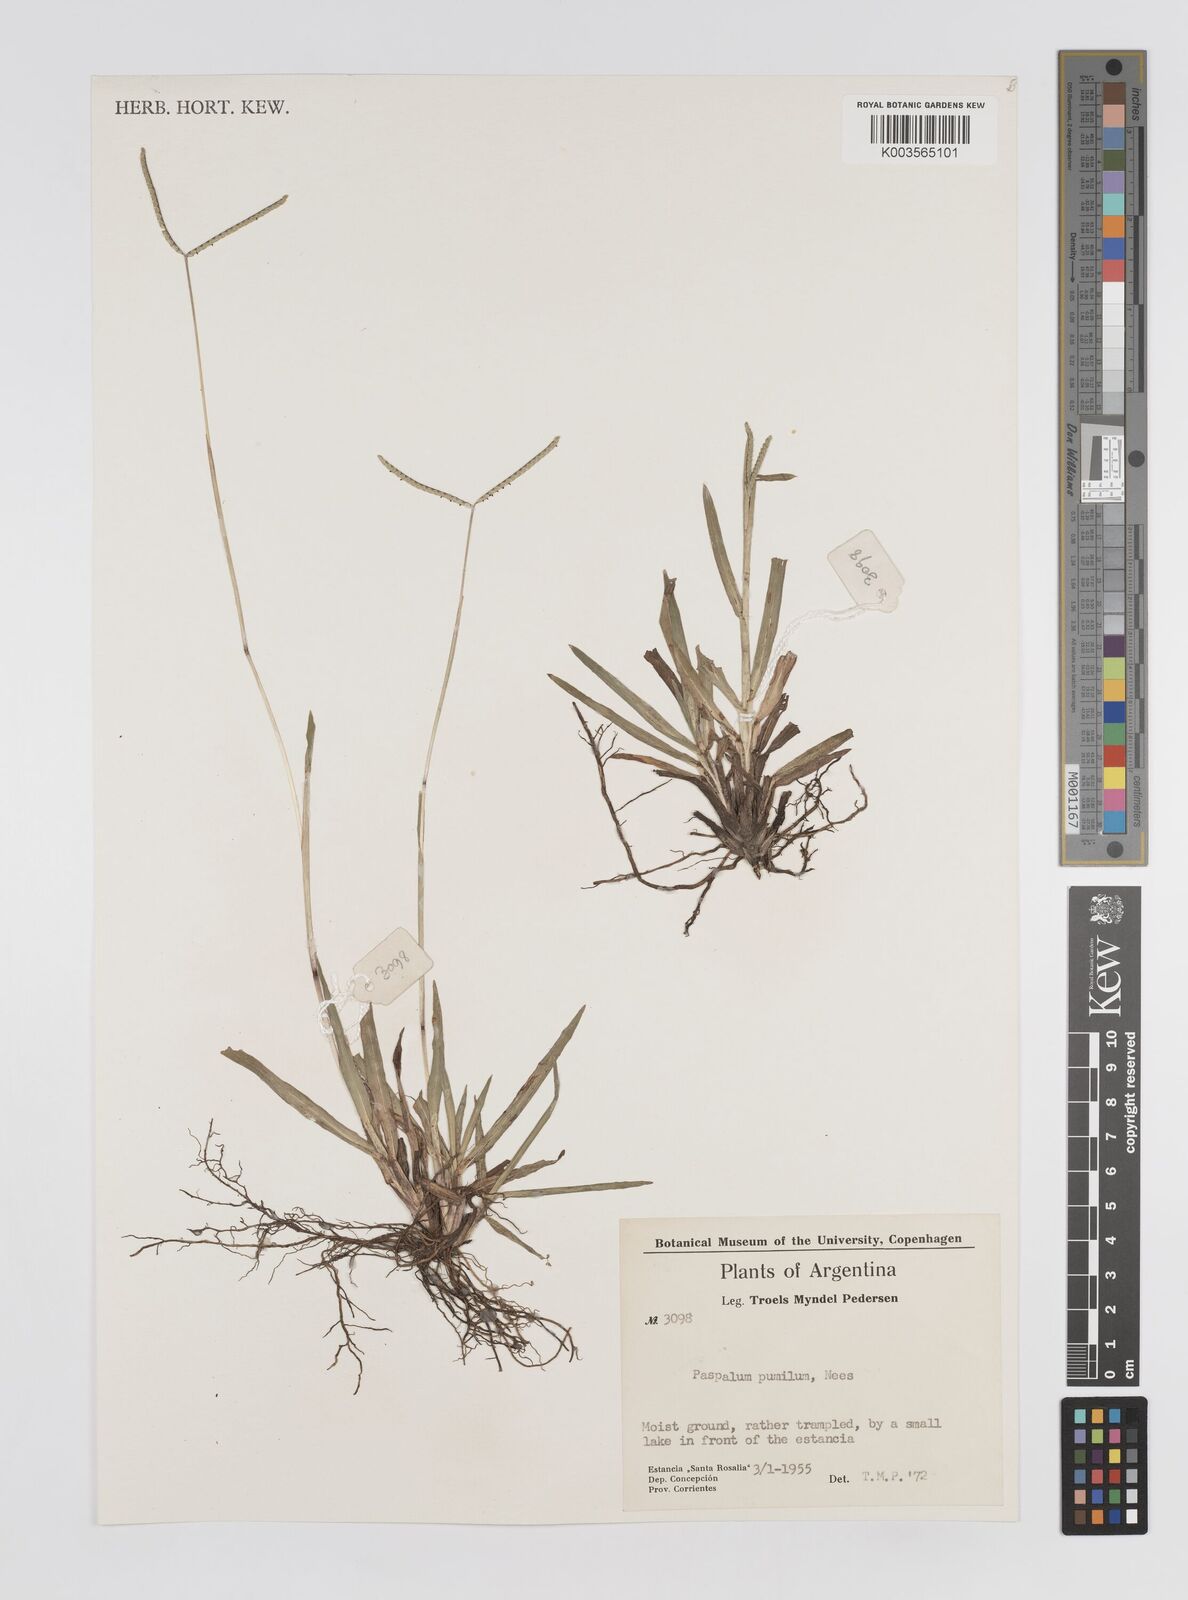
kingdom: Plantae
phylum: Tracheophyta
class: Liliopsida
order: Poales
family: Poaceae
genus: Paspalum
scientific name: Paspalum pumilum
